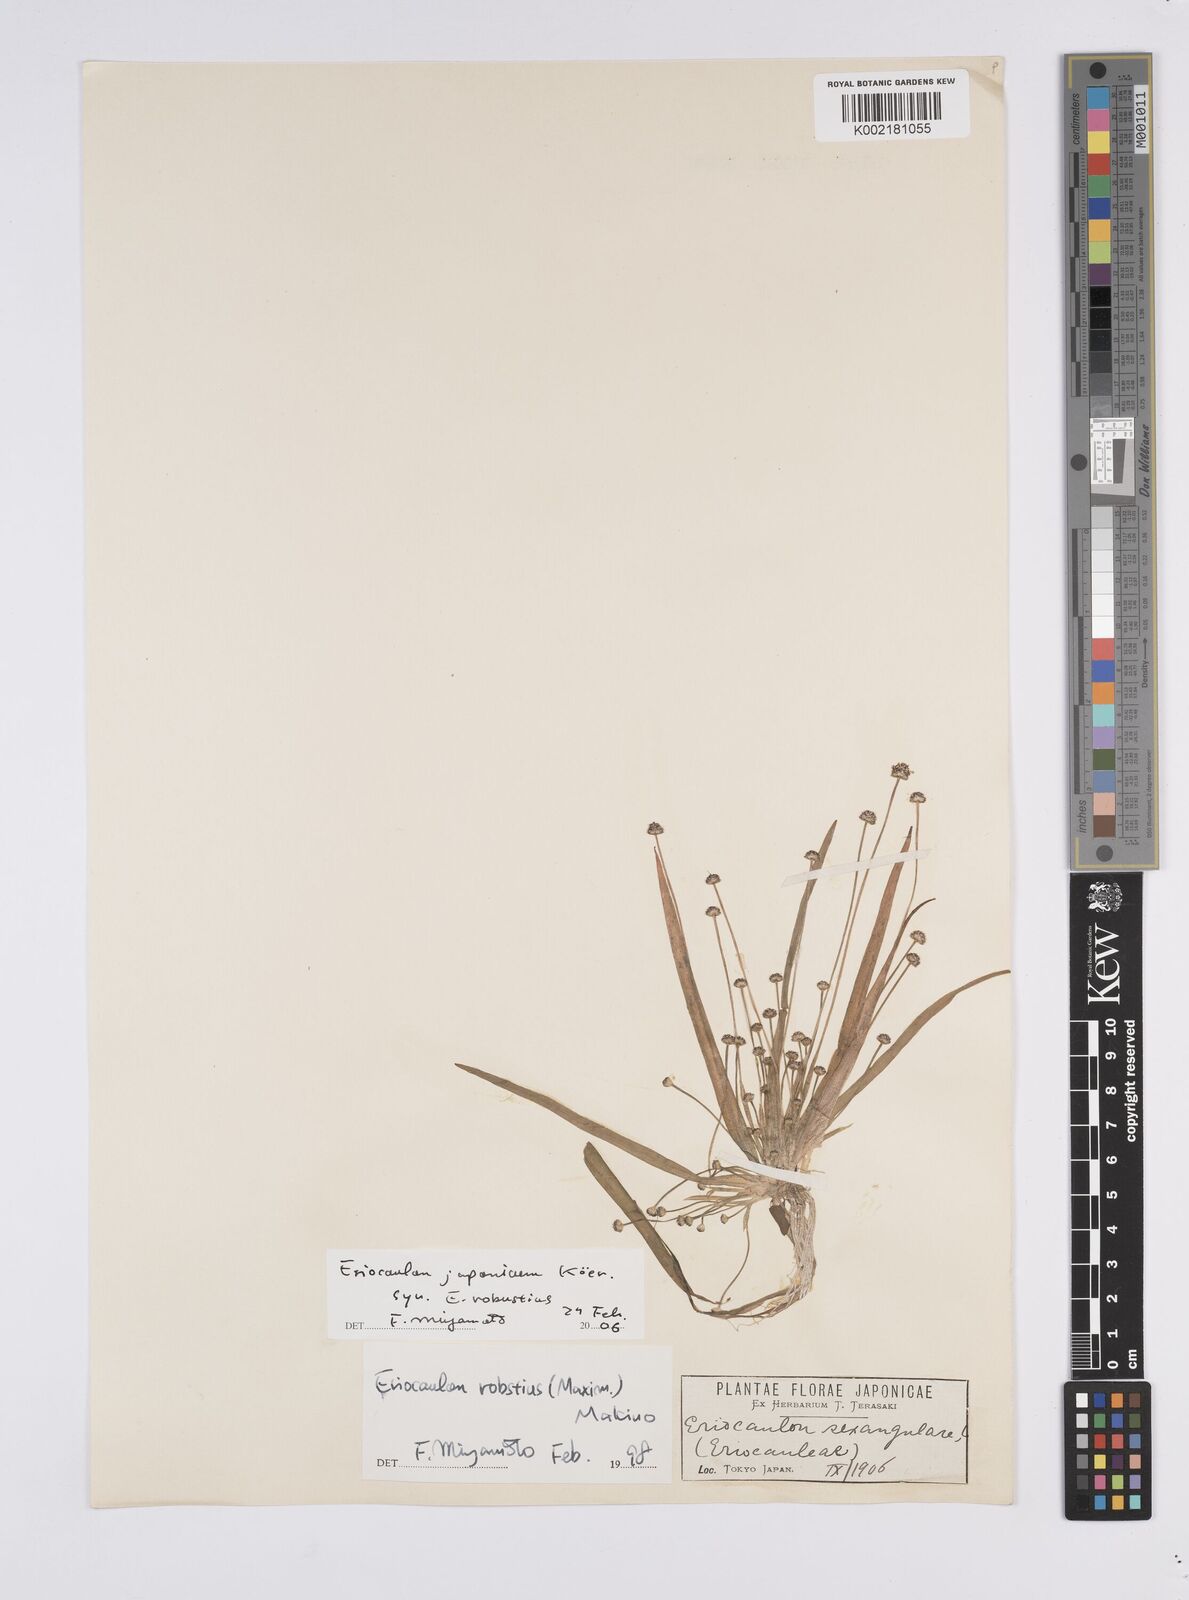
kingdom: Plantae
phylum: Tracheophyta
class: Liliopsida
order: Poales
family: Eriocaulaceae
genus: Eriocaulon
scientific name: Eriocaulon sexangulare
